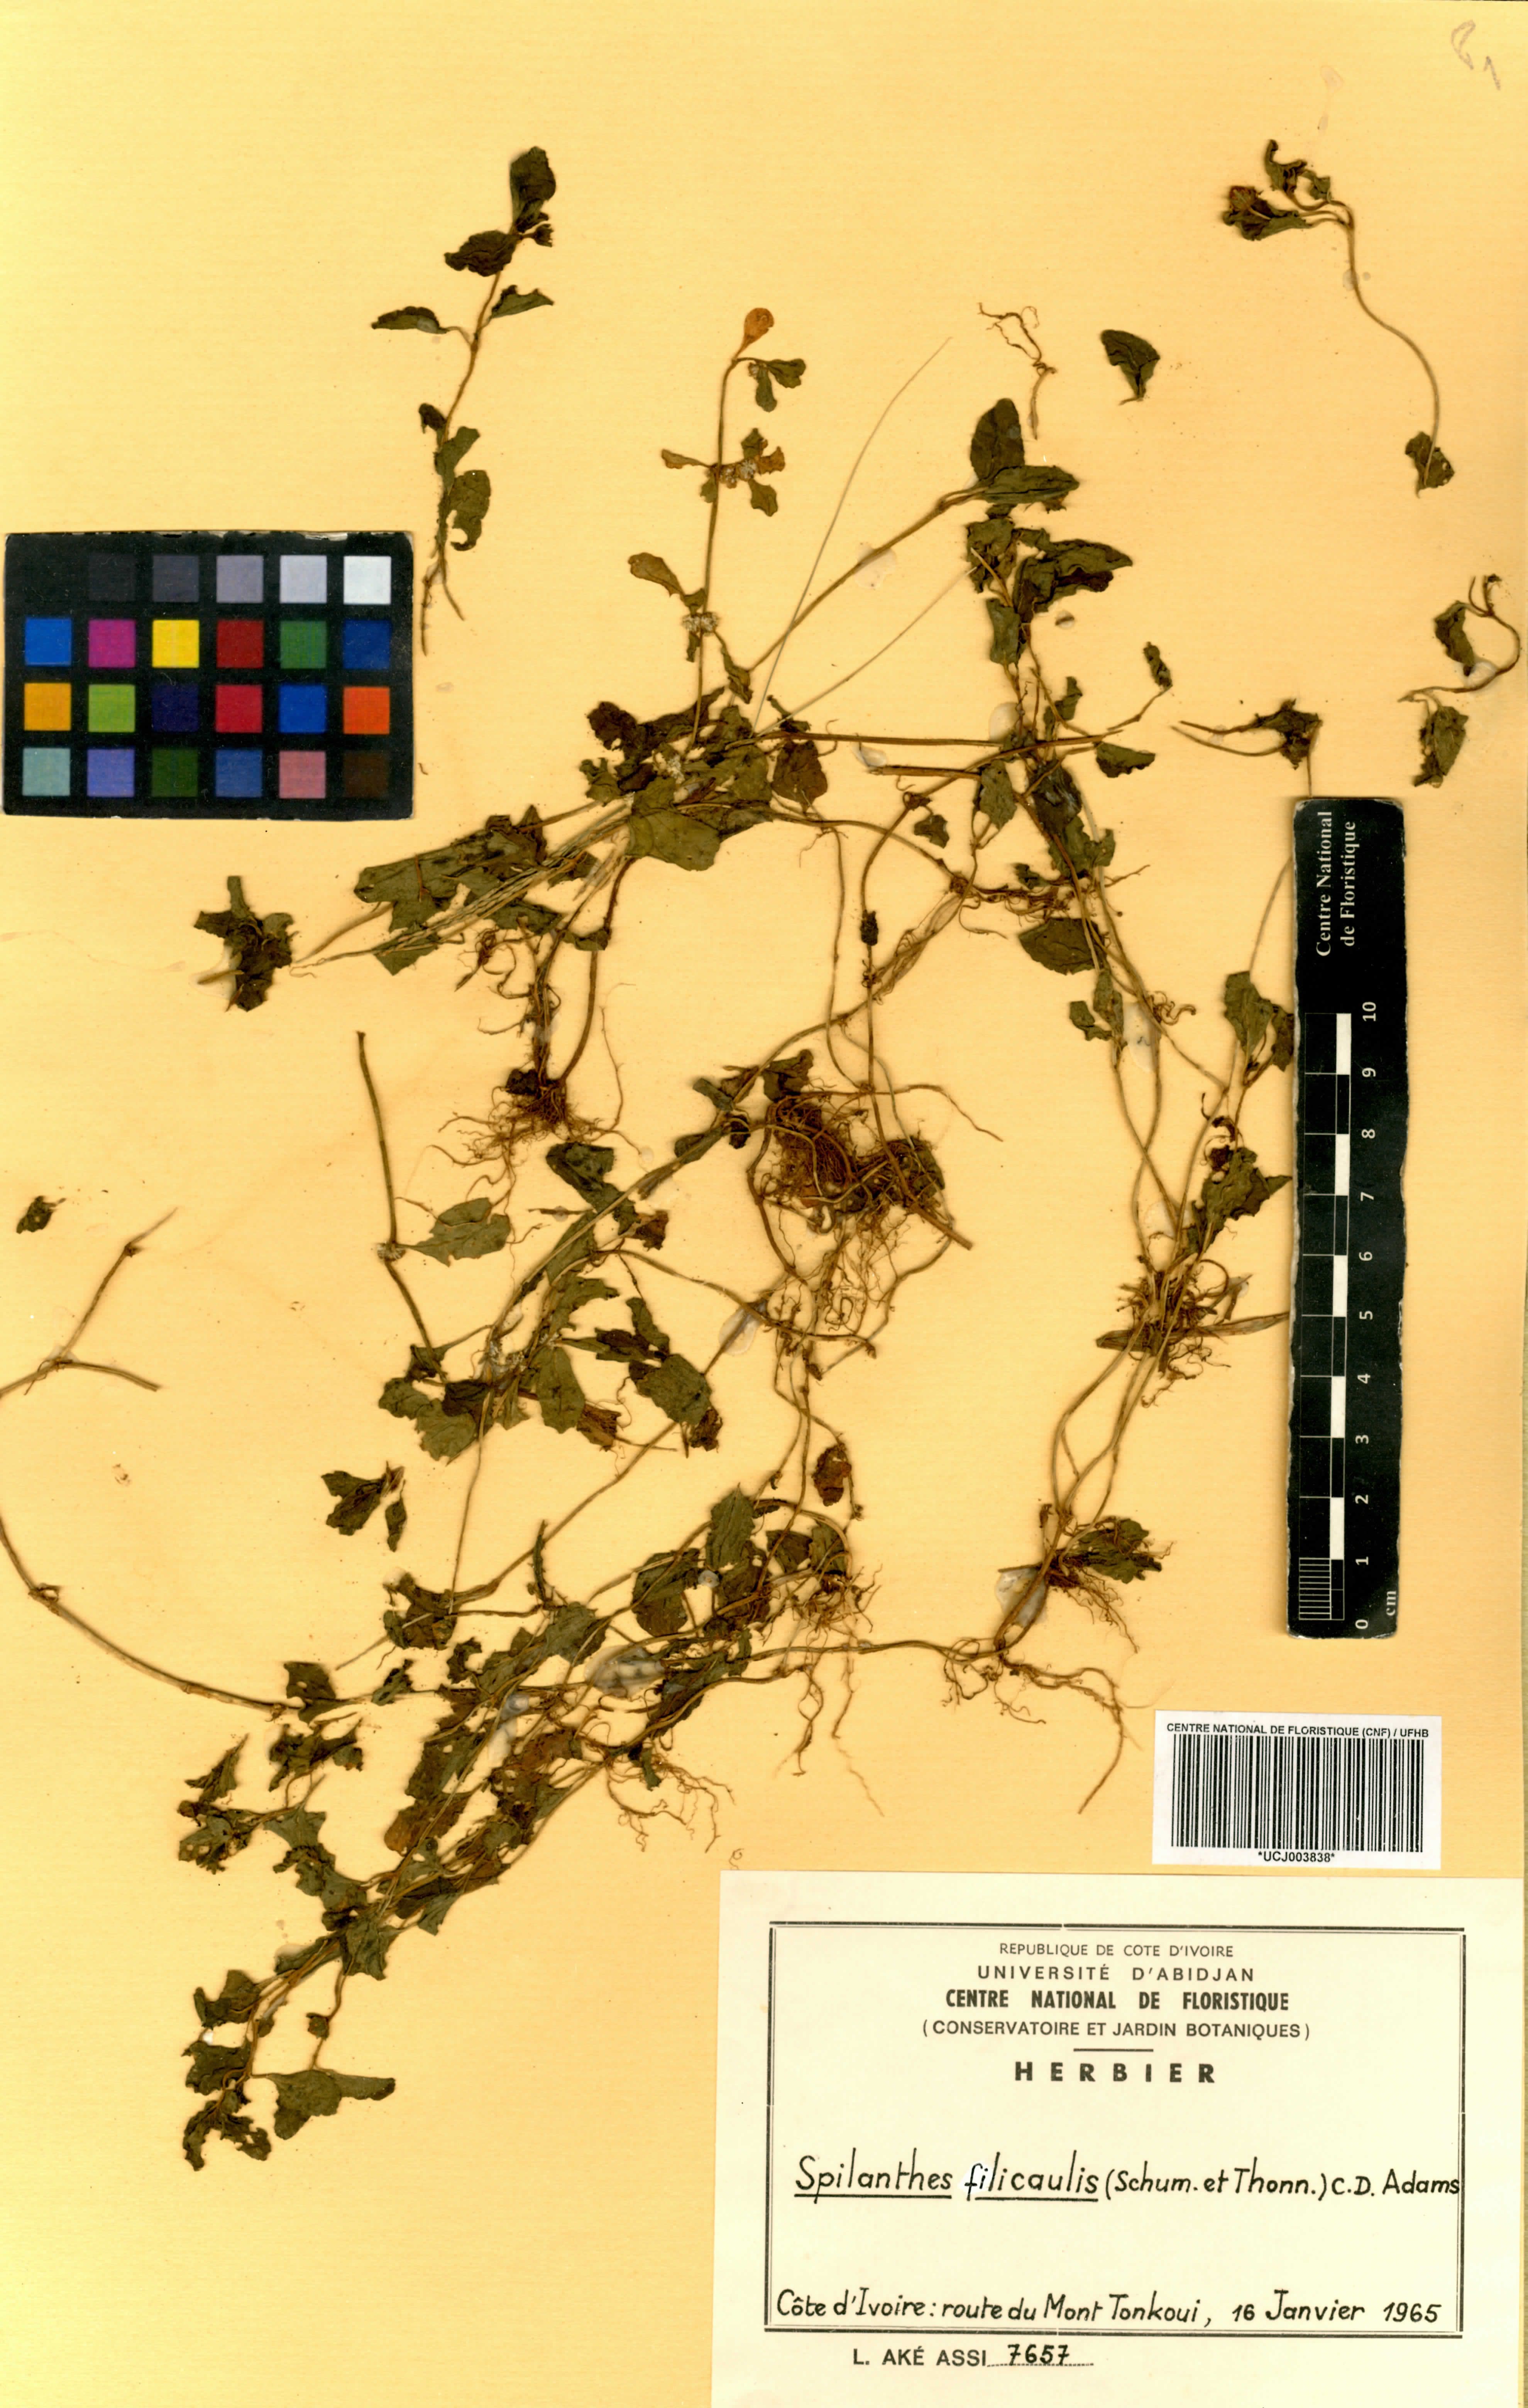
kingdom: Plantae
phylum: Tracheophyta
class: Magnoliopsida
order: Asterales
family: Asteraceae
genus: Acmella
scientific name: Acmella caulirhiza
